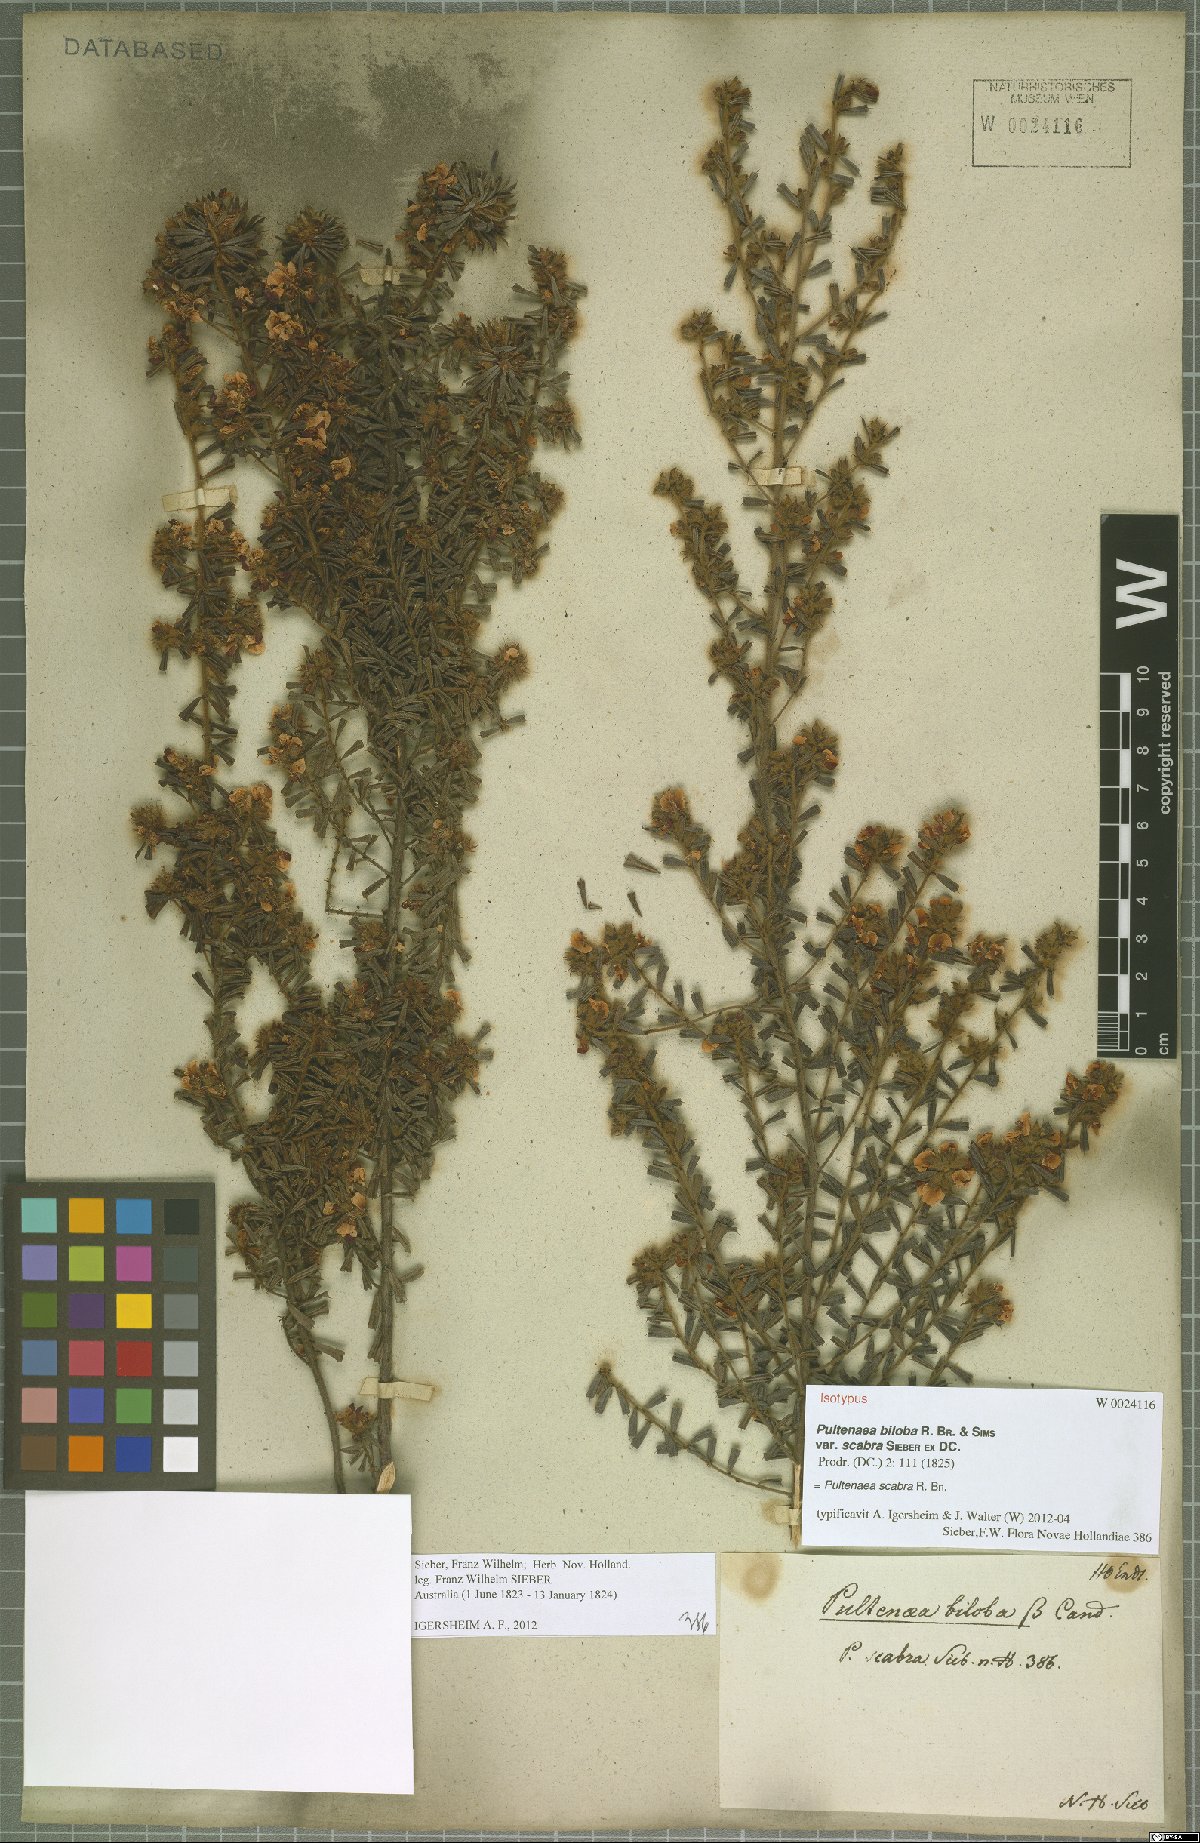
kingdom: Plantae
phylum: Tracheophyta
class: Magnoliopsida
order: Fabales
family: Fabaceae
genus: Pultenaea
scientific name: Pultenaea scabra
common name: Rough bush-pea
